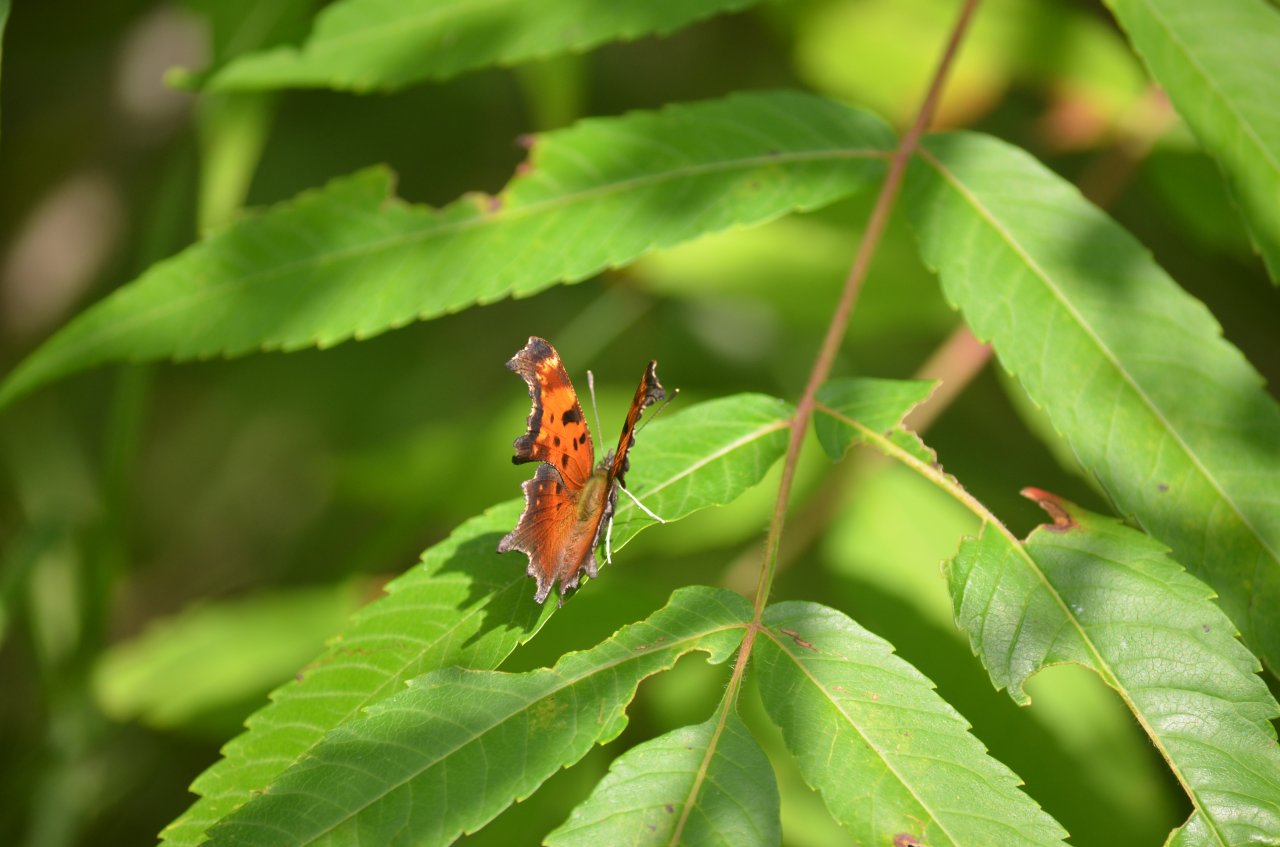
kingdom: Animalia
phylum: Arthropoda
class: Insecta
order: Lepidoptera
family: Nymphalidae
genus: Polygonia
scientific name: Polygonia progne
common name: Gray Comma
